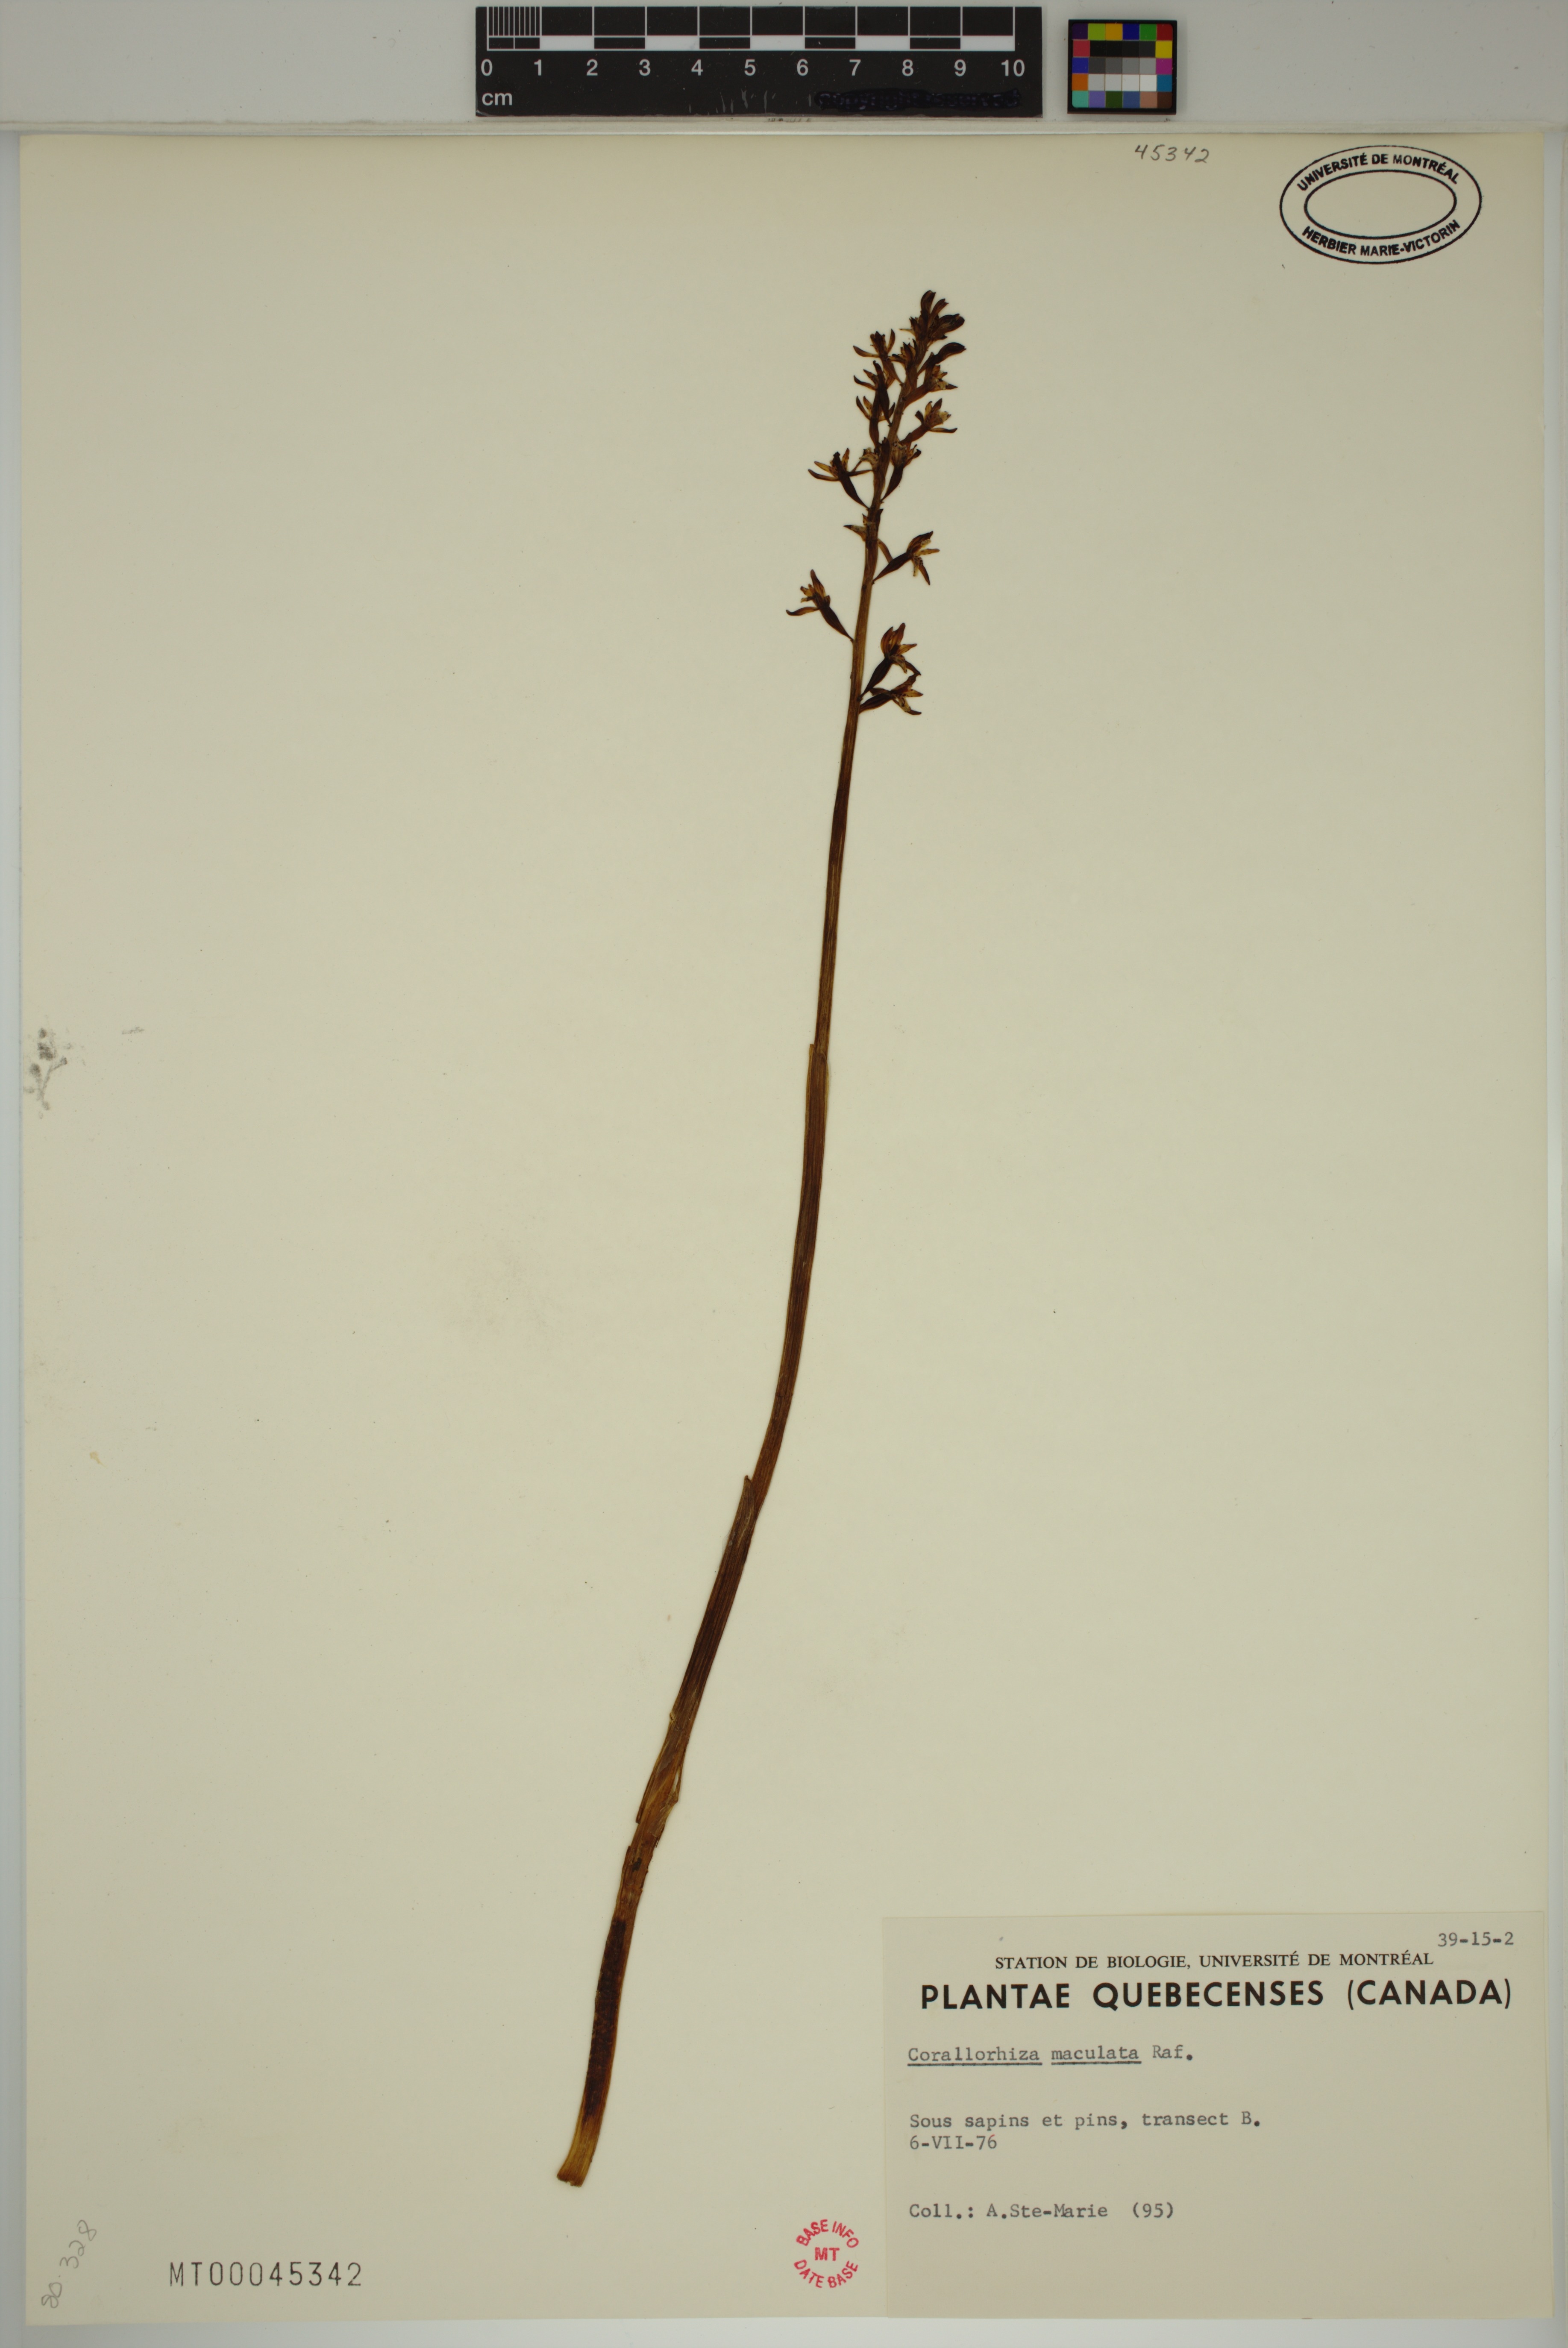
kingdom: Plantae
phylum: Tracheophyta
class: Liliopsida
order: Asparagales
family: Orchidaceae
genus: Corallorhiza
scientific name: Corallorhiza maculata
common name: Spotted coralroot
